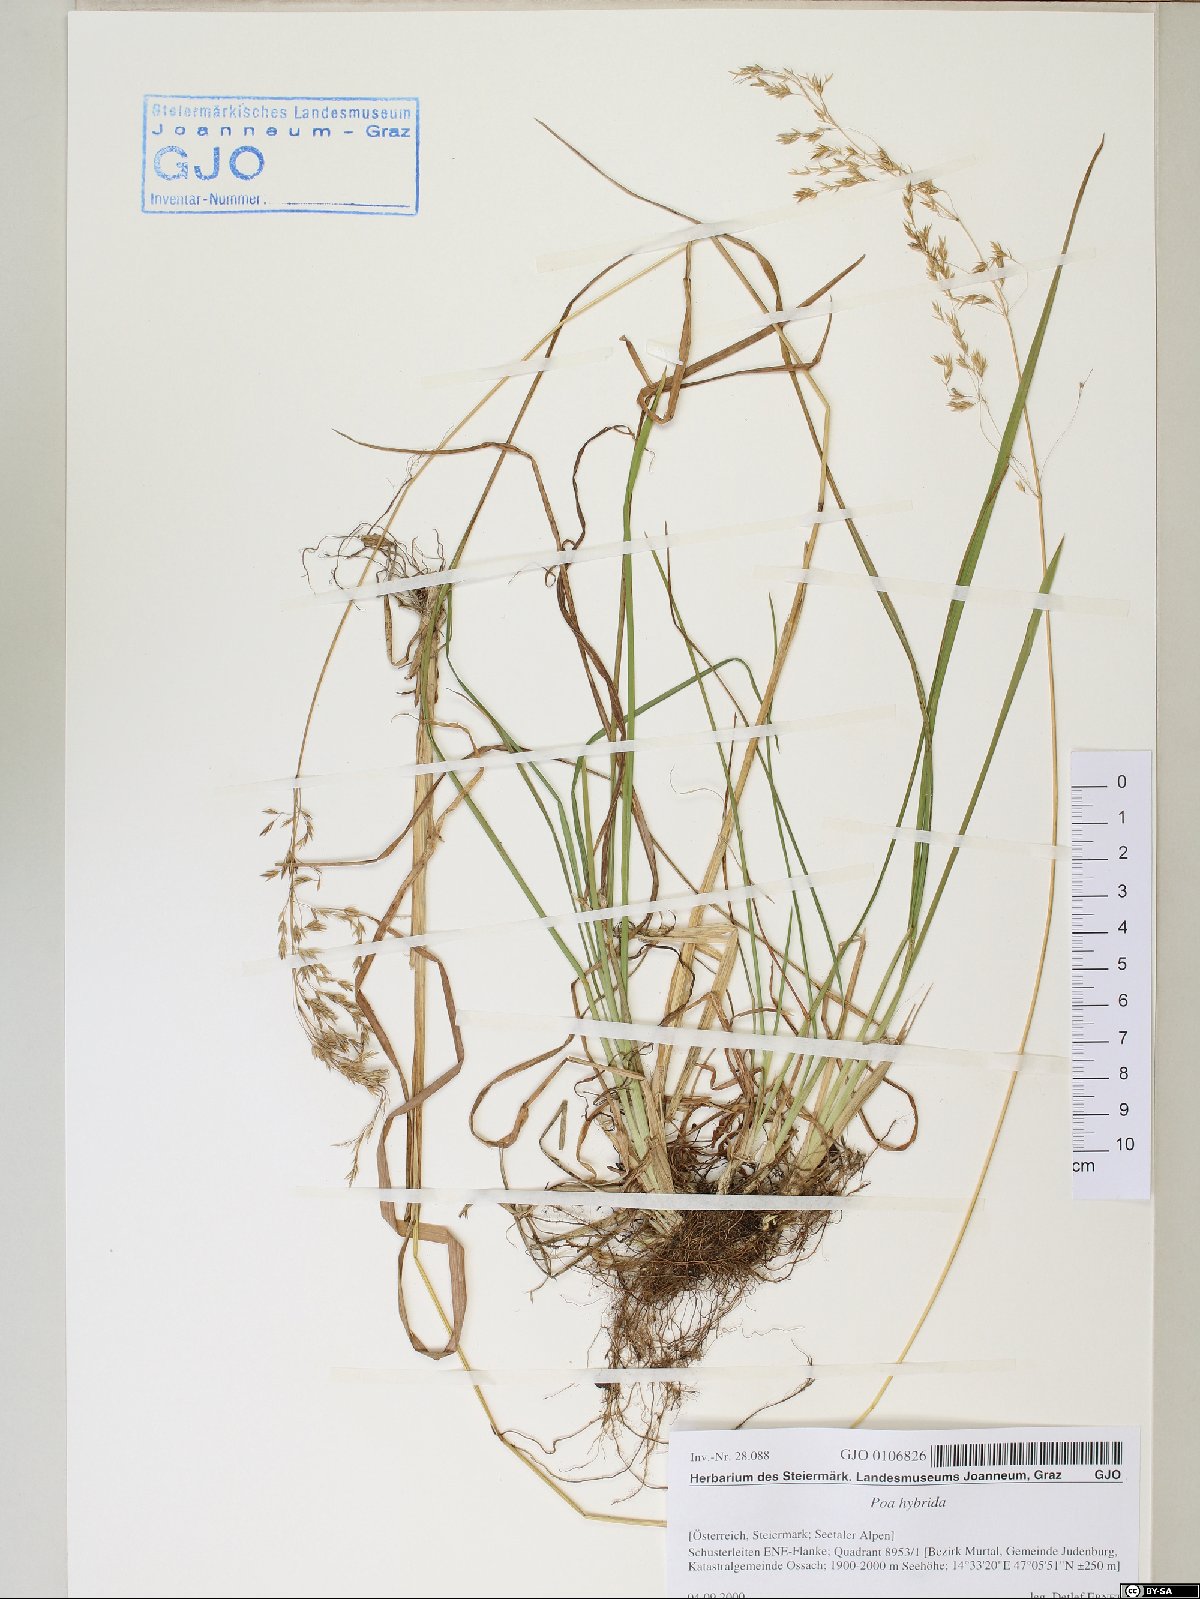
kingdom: Plantae
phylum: Tracheophyta
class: Liliopsida
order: Poales
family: Poaceae
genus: Poa
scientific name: Poa hybrida
